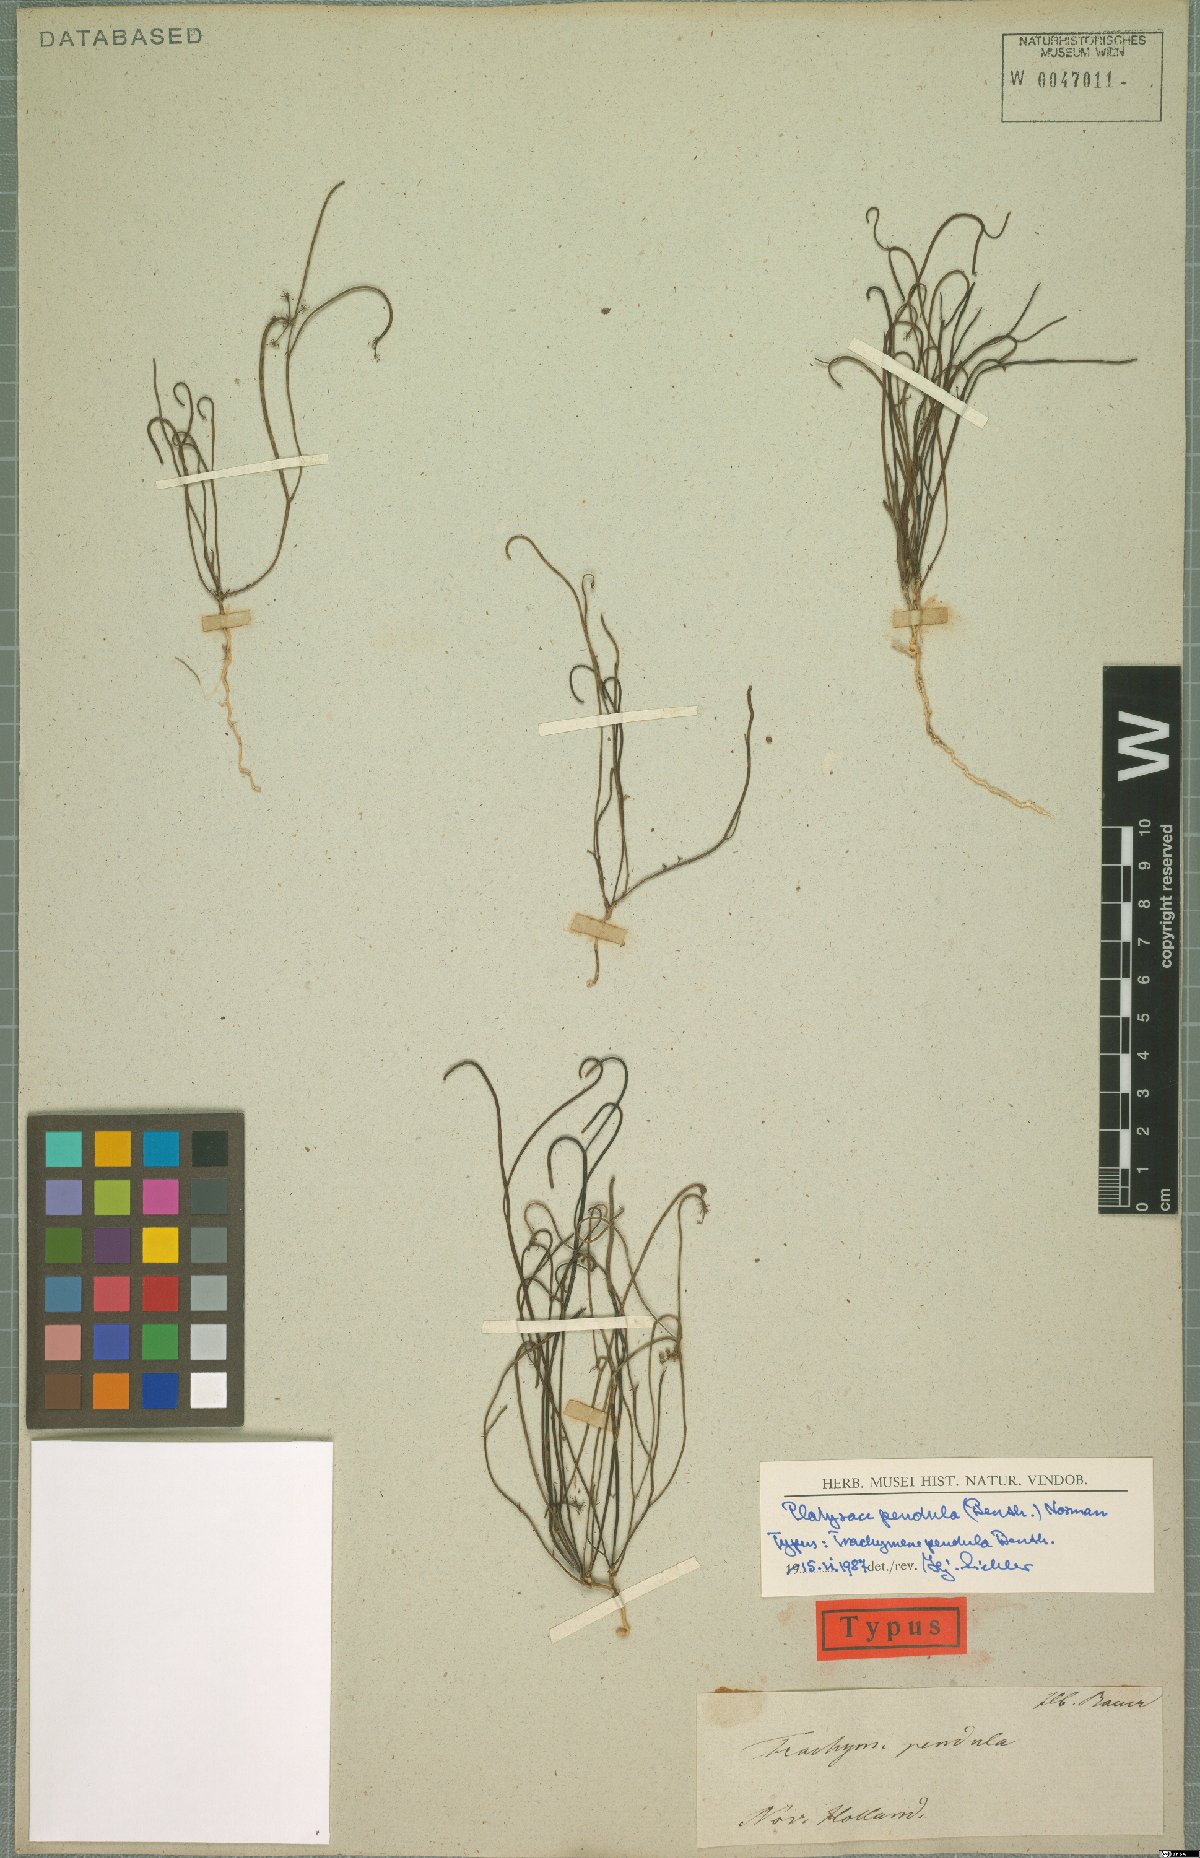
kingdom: Plantae
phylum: Tracheophyta
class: Magnoliopsida
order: Apiales
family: Apiaceae
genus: Platysace
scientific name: Platysace pendula
